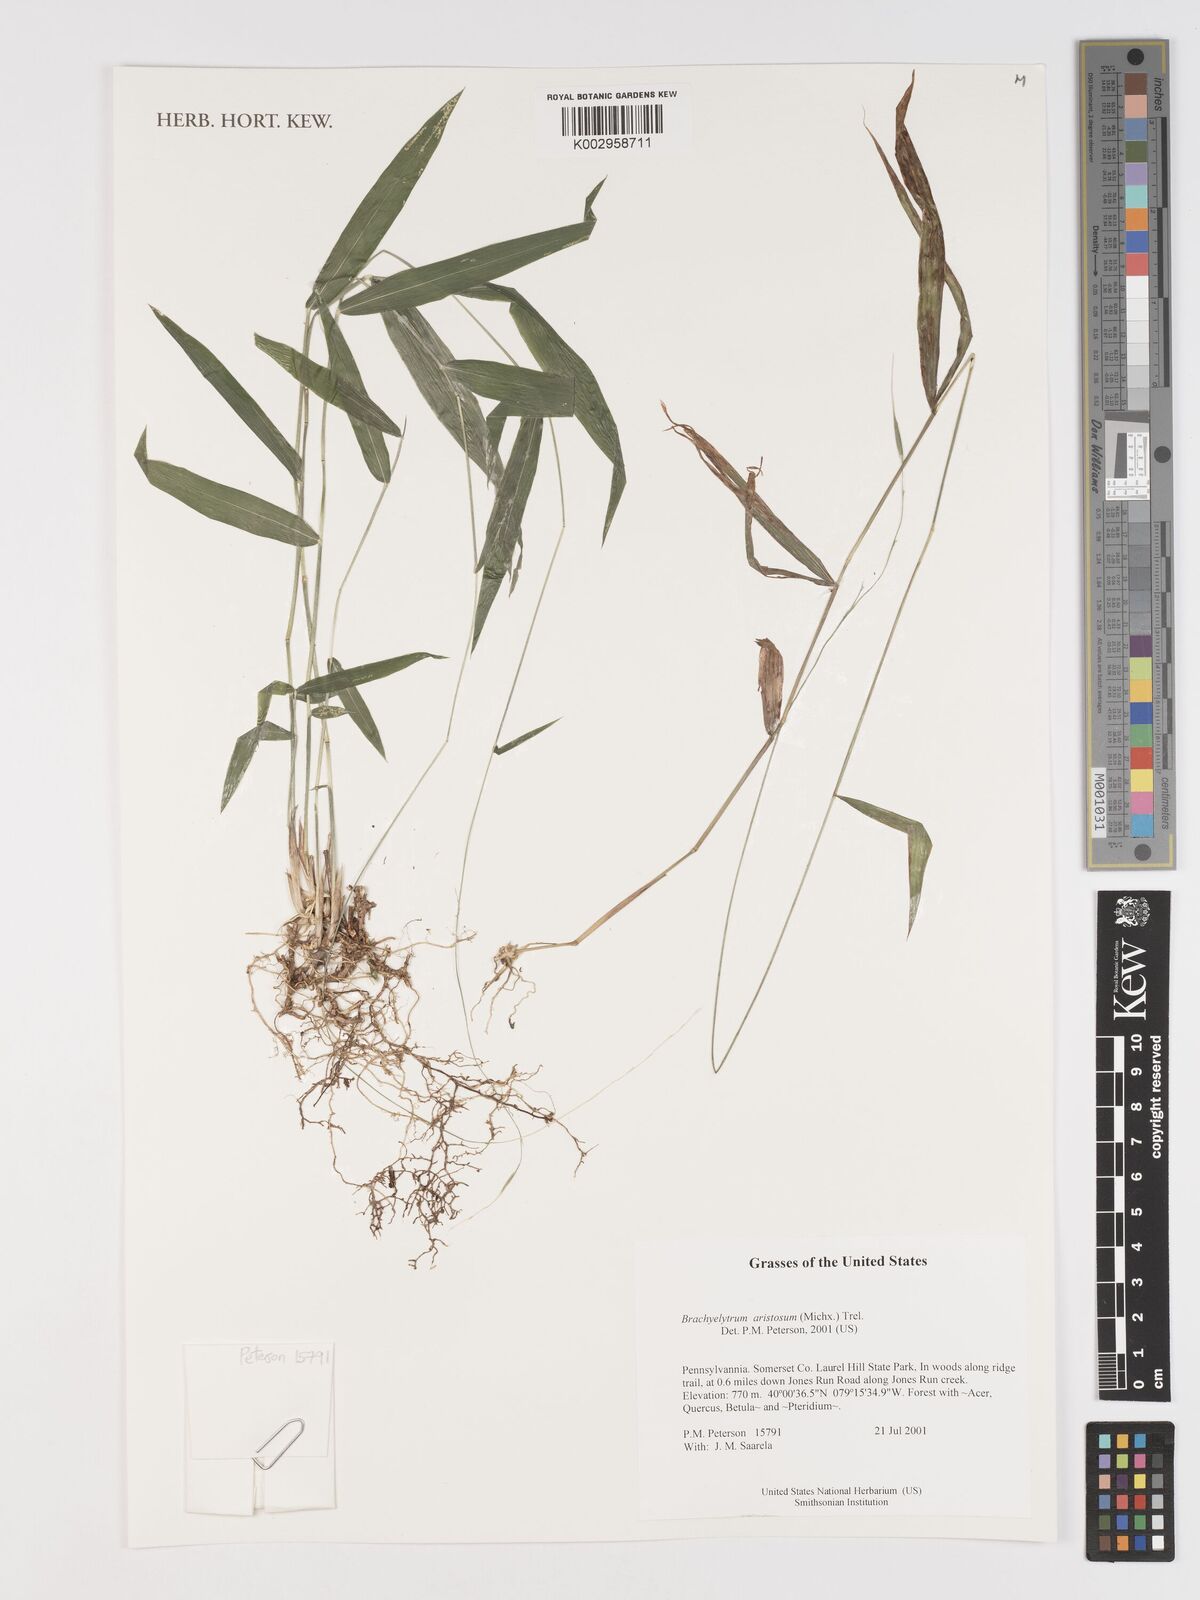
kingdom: Plantae
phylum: Tracheophyta
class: Liliopsida
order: Poales
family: Poaceae
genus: Brachyelytrum
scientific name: Brachyelytrum aristosum
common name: Northern shorthusk
